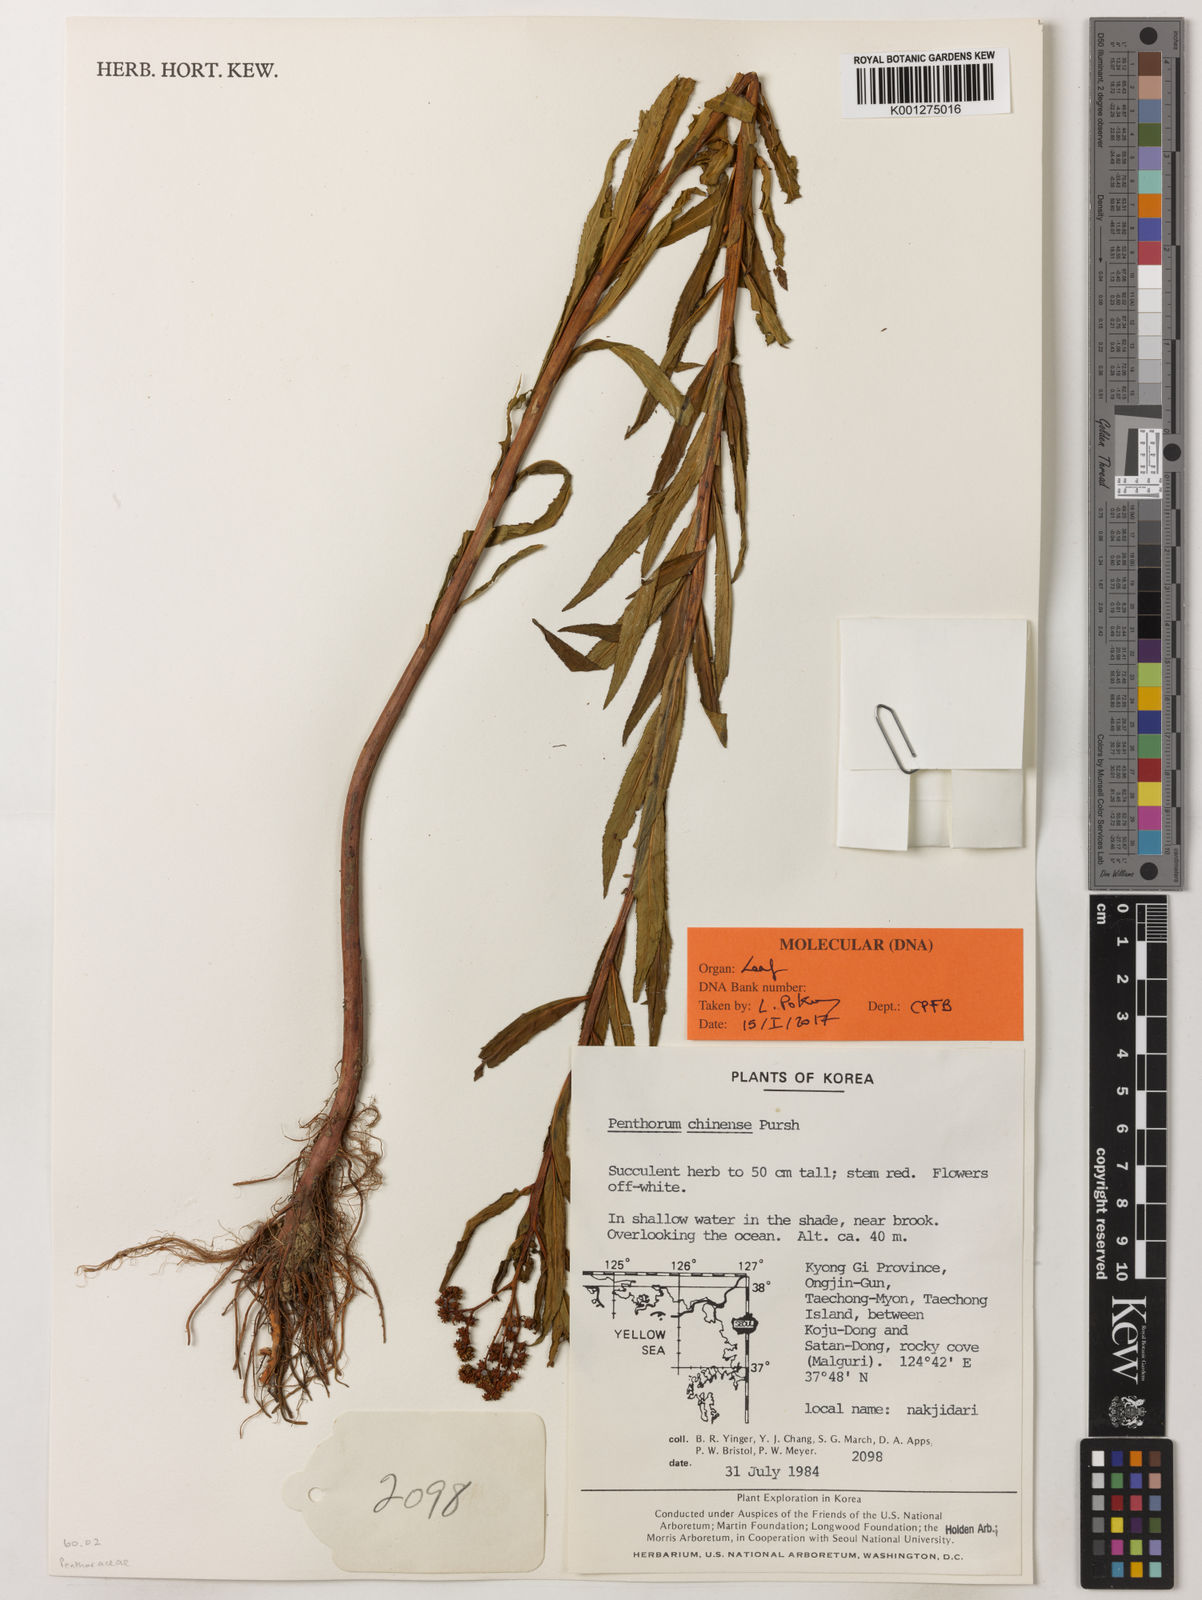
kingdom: Plantae
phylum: Tracheophyta
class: Magnoliopsida
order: Saxifragales
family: Penthoraceae
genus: Penthorum
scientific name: Penthorum chinense
